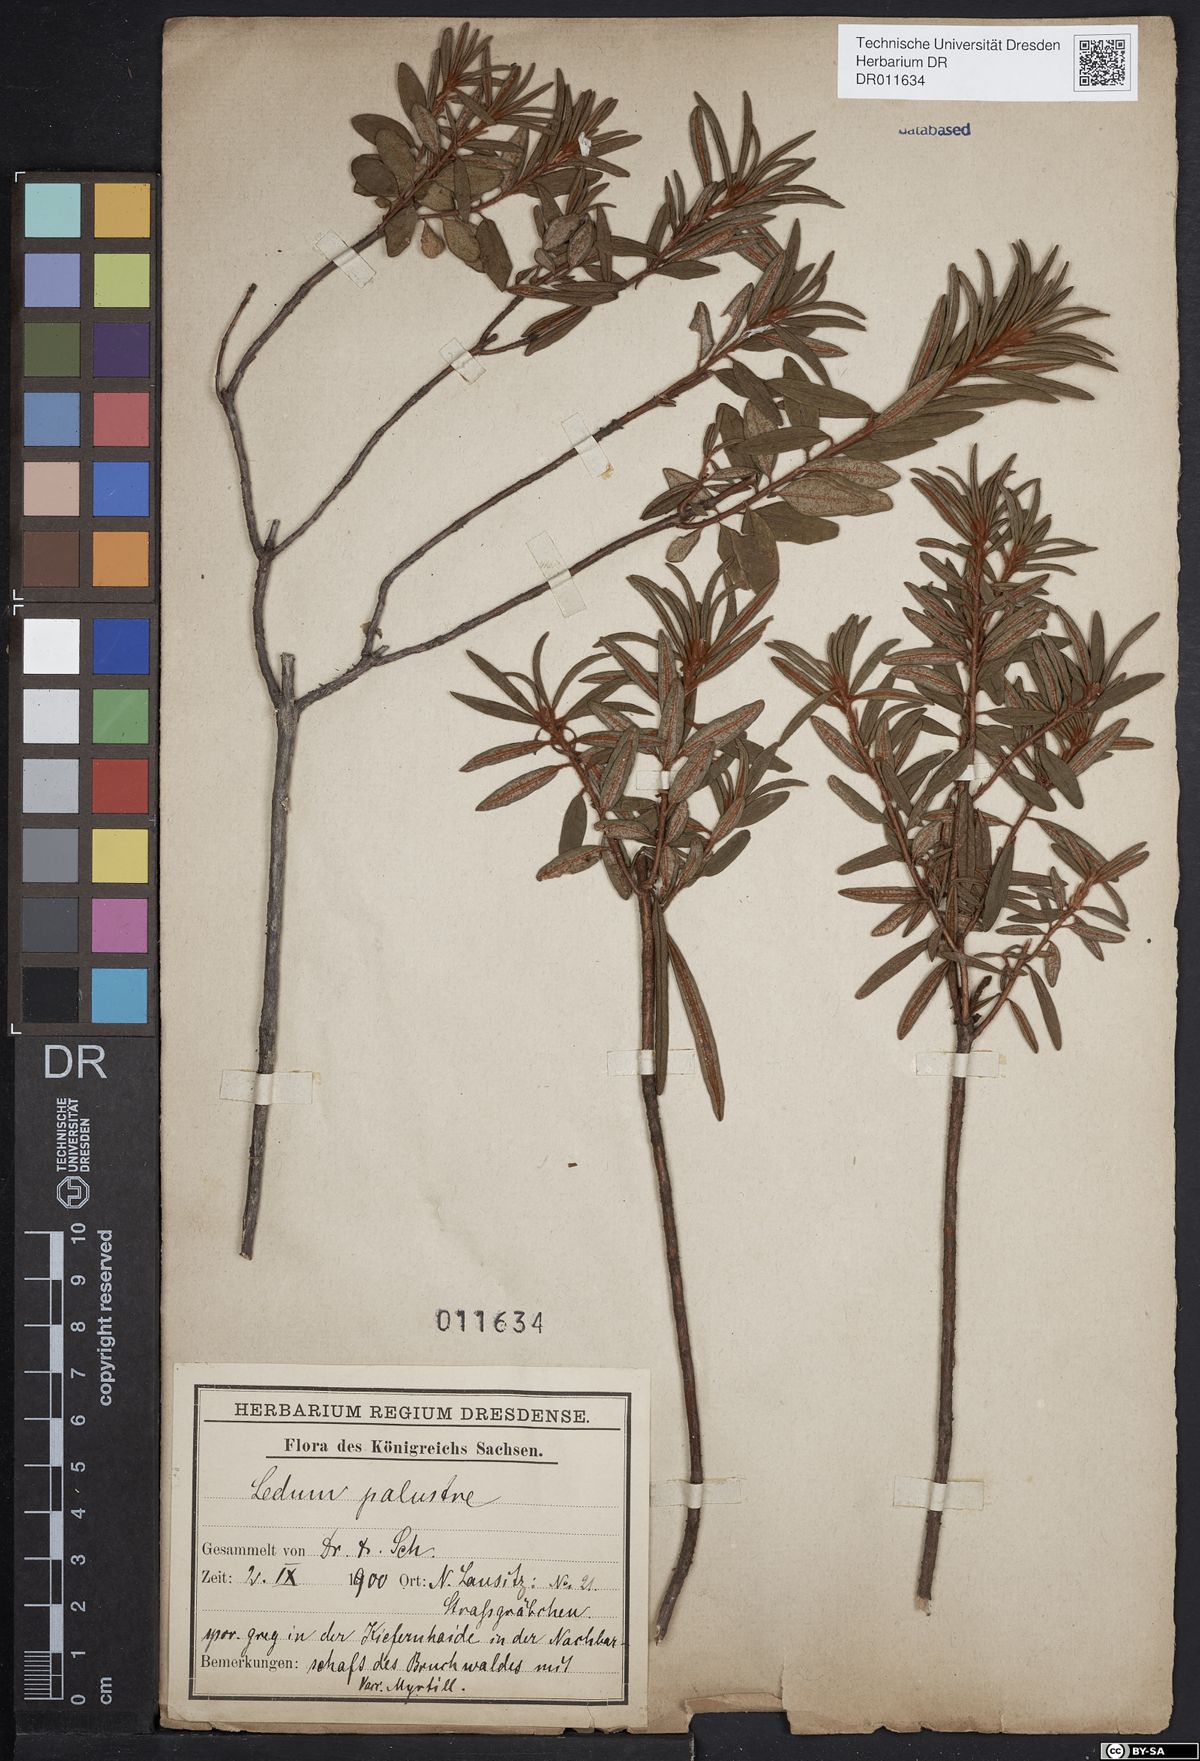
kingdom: Plantae
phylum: Tracheophyta
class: Magnoliopsida
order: Ericales
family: Ericaceae
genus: Rhododendron
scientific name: Rhododendron tomentosum
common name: Marsh labrador tea
